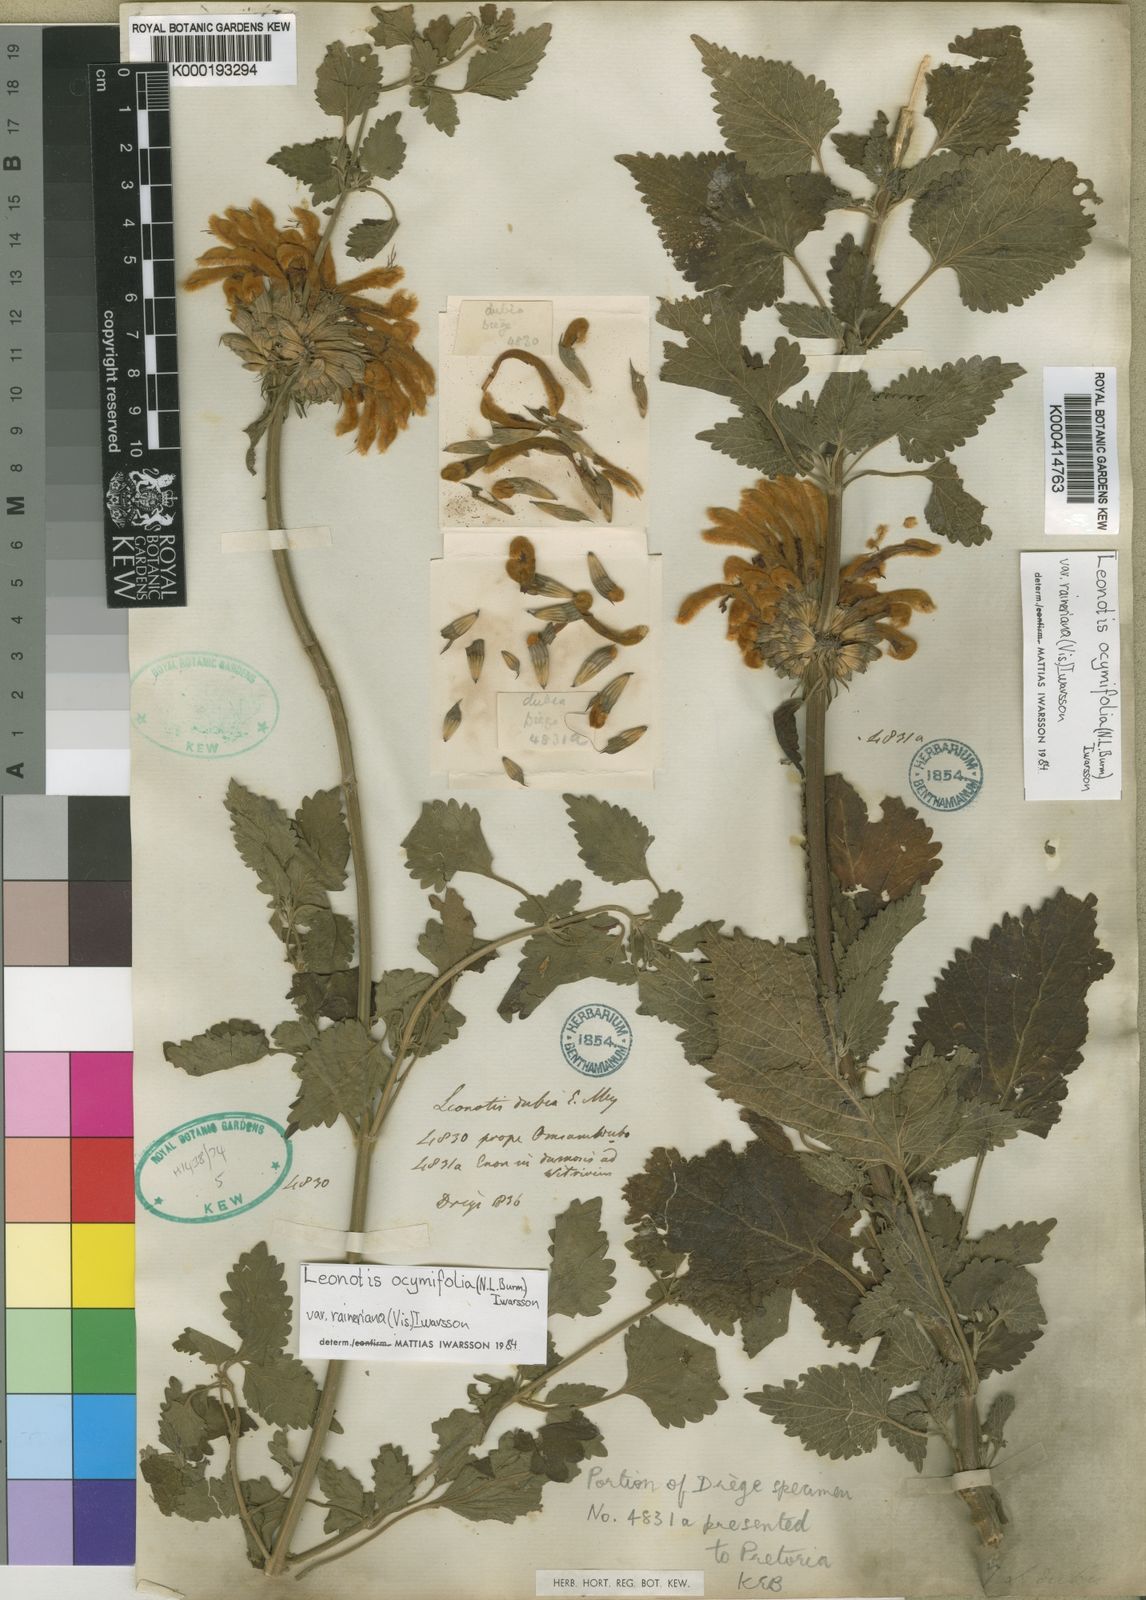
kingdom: Plantae
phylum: Tracheophyta
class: Magnoliopsida
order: Lamiales
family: Lamiaceae
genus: Leonotis
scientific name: Leonotis
